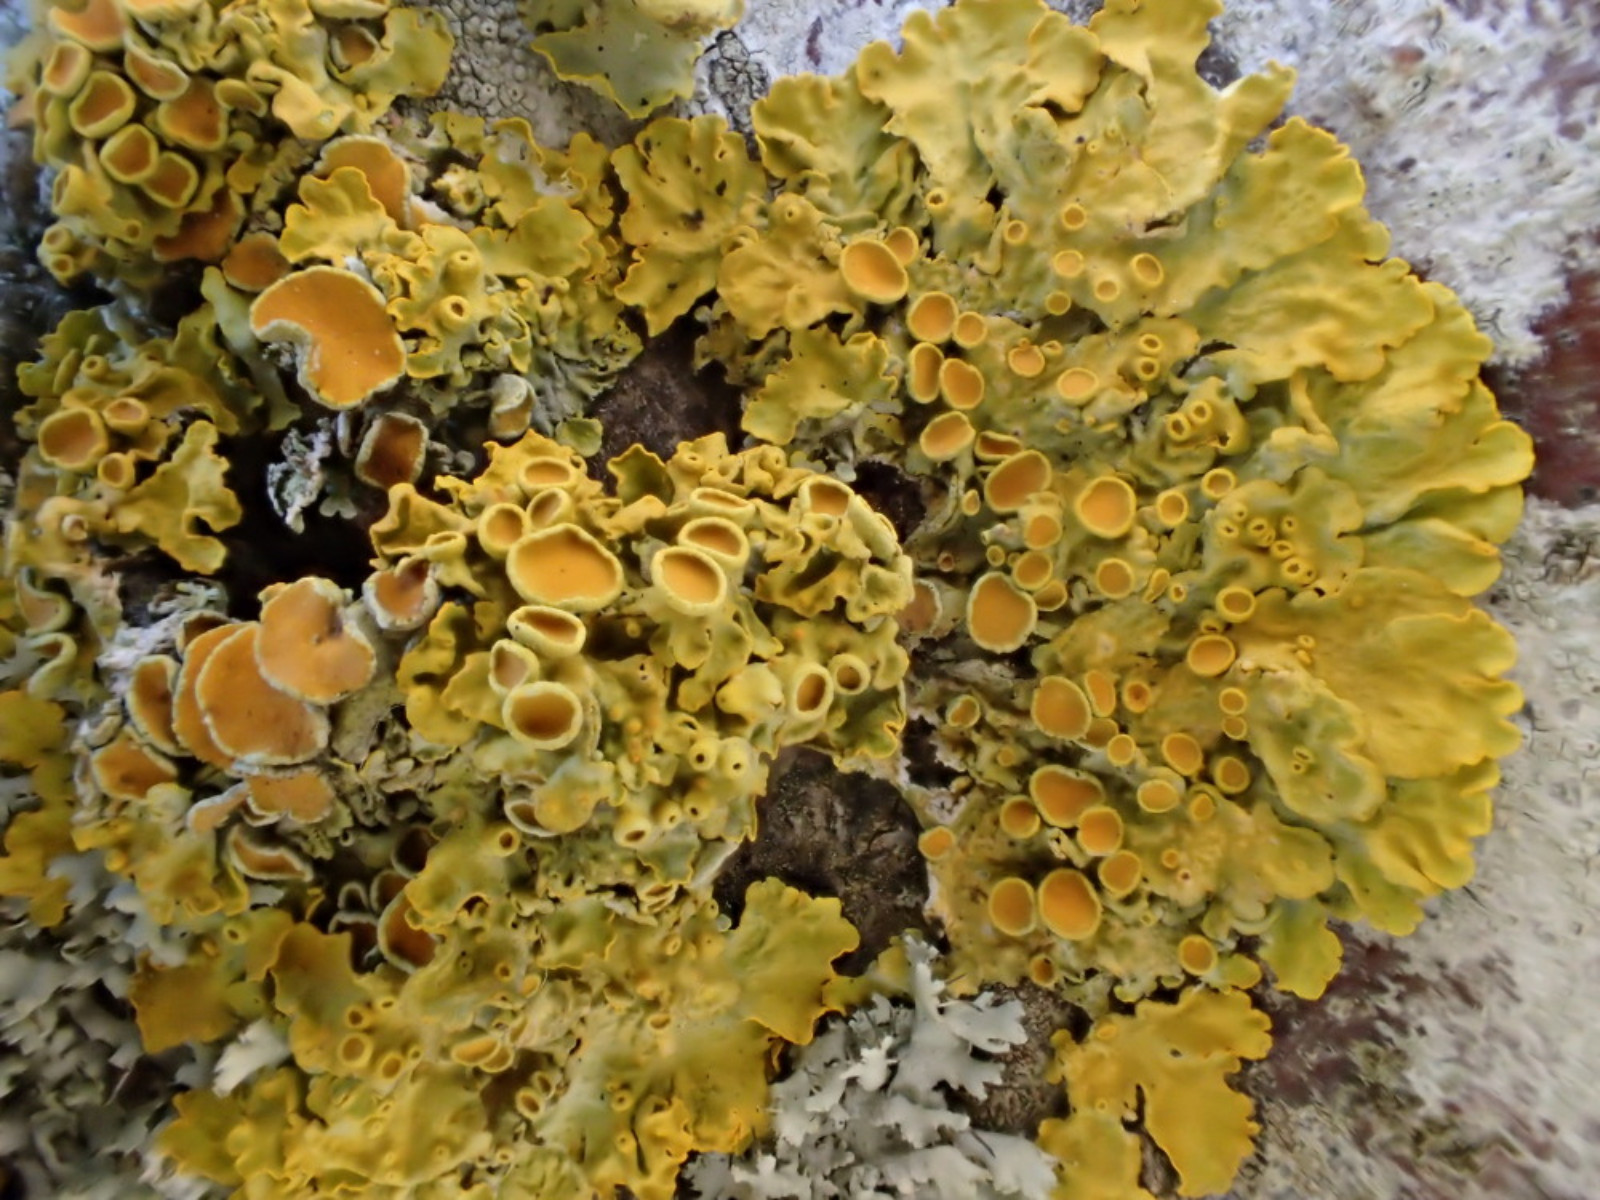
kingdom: Fungi
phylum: Ascomycota
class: Lecanoromycetes
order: Teloschistales
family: Teloschistaceae
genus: Xanthoria
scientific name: Xanthoria parietina
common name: almindelig væggelav
